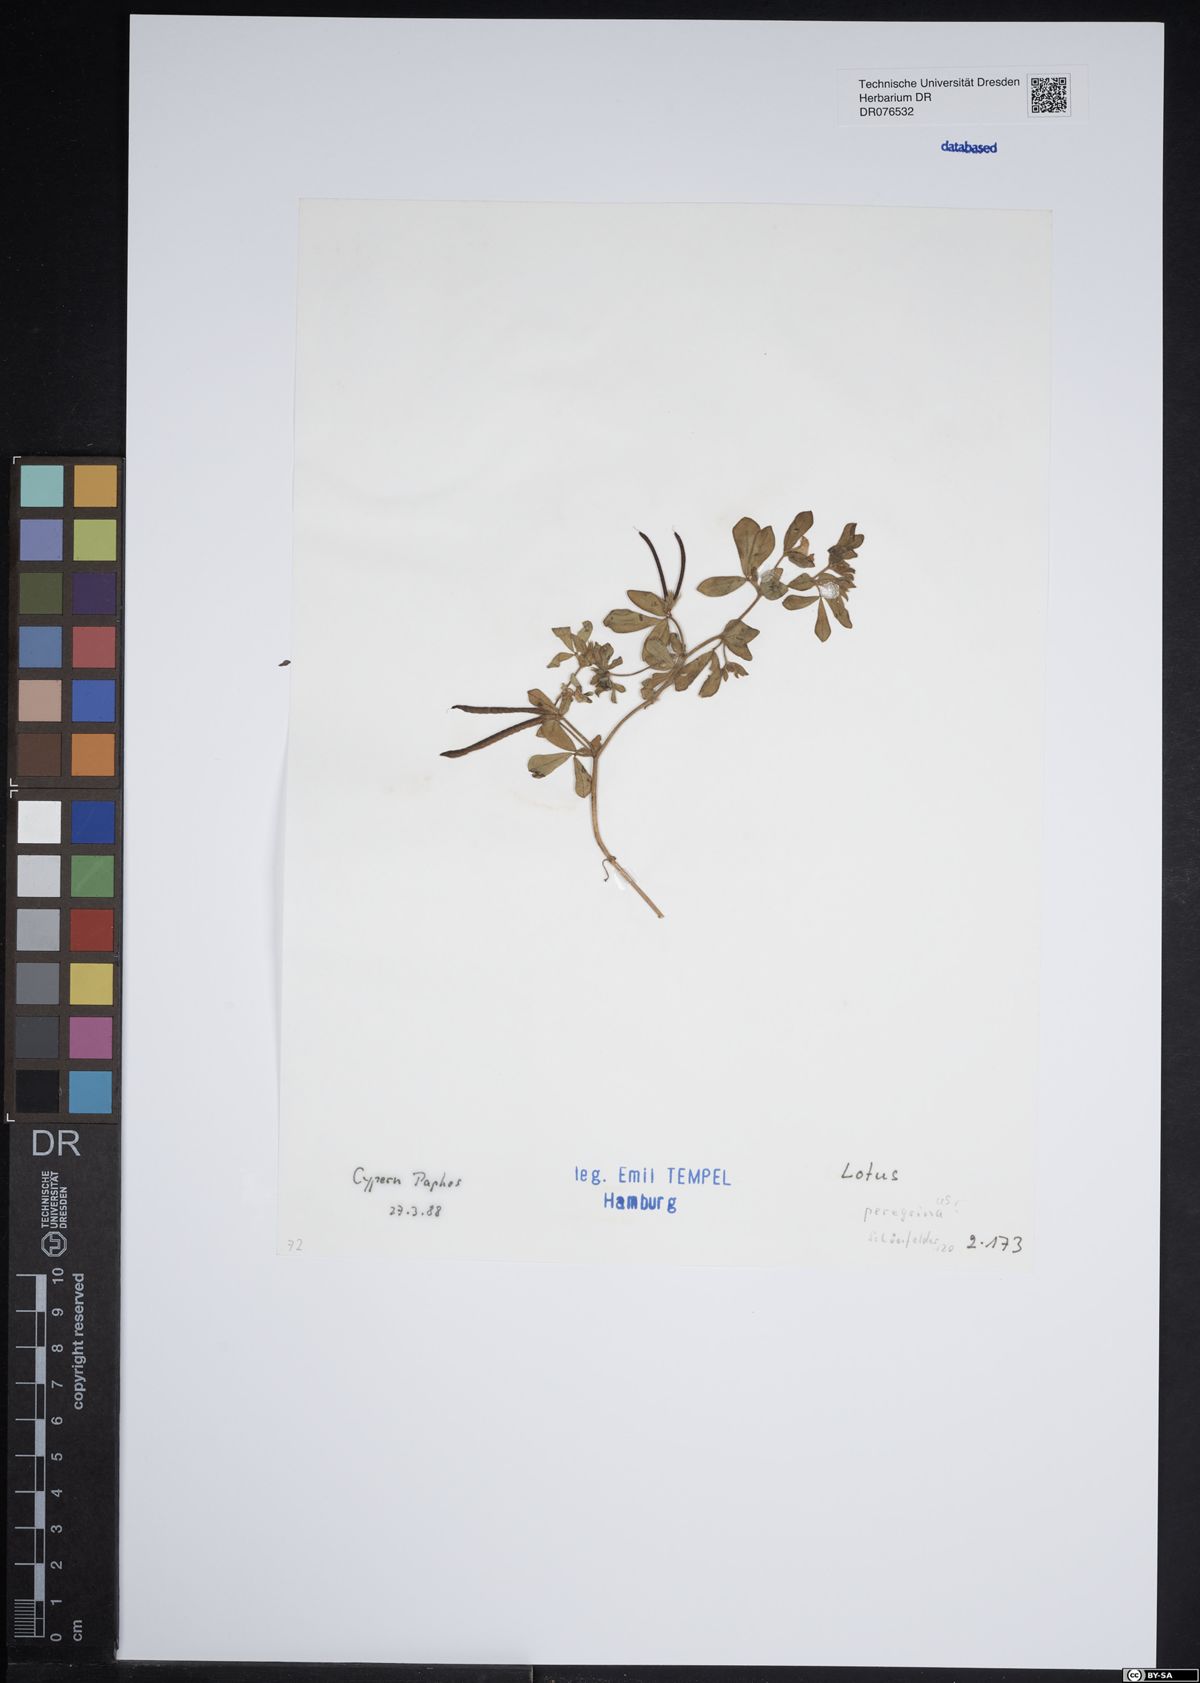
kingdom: Plantae
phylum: Tracheophyta
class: Magnoliopsida
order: Fabales
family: Fabaceae
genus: Lotus
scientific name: Lotus peregrinus
